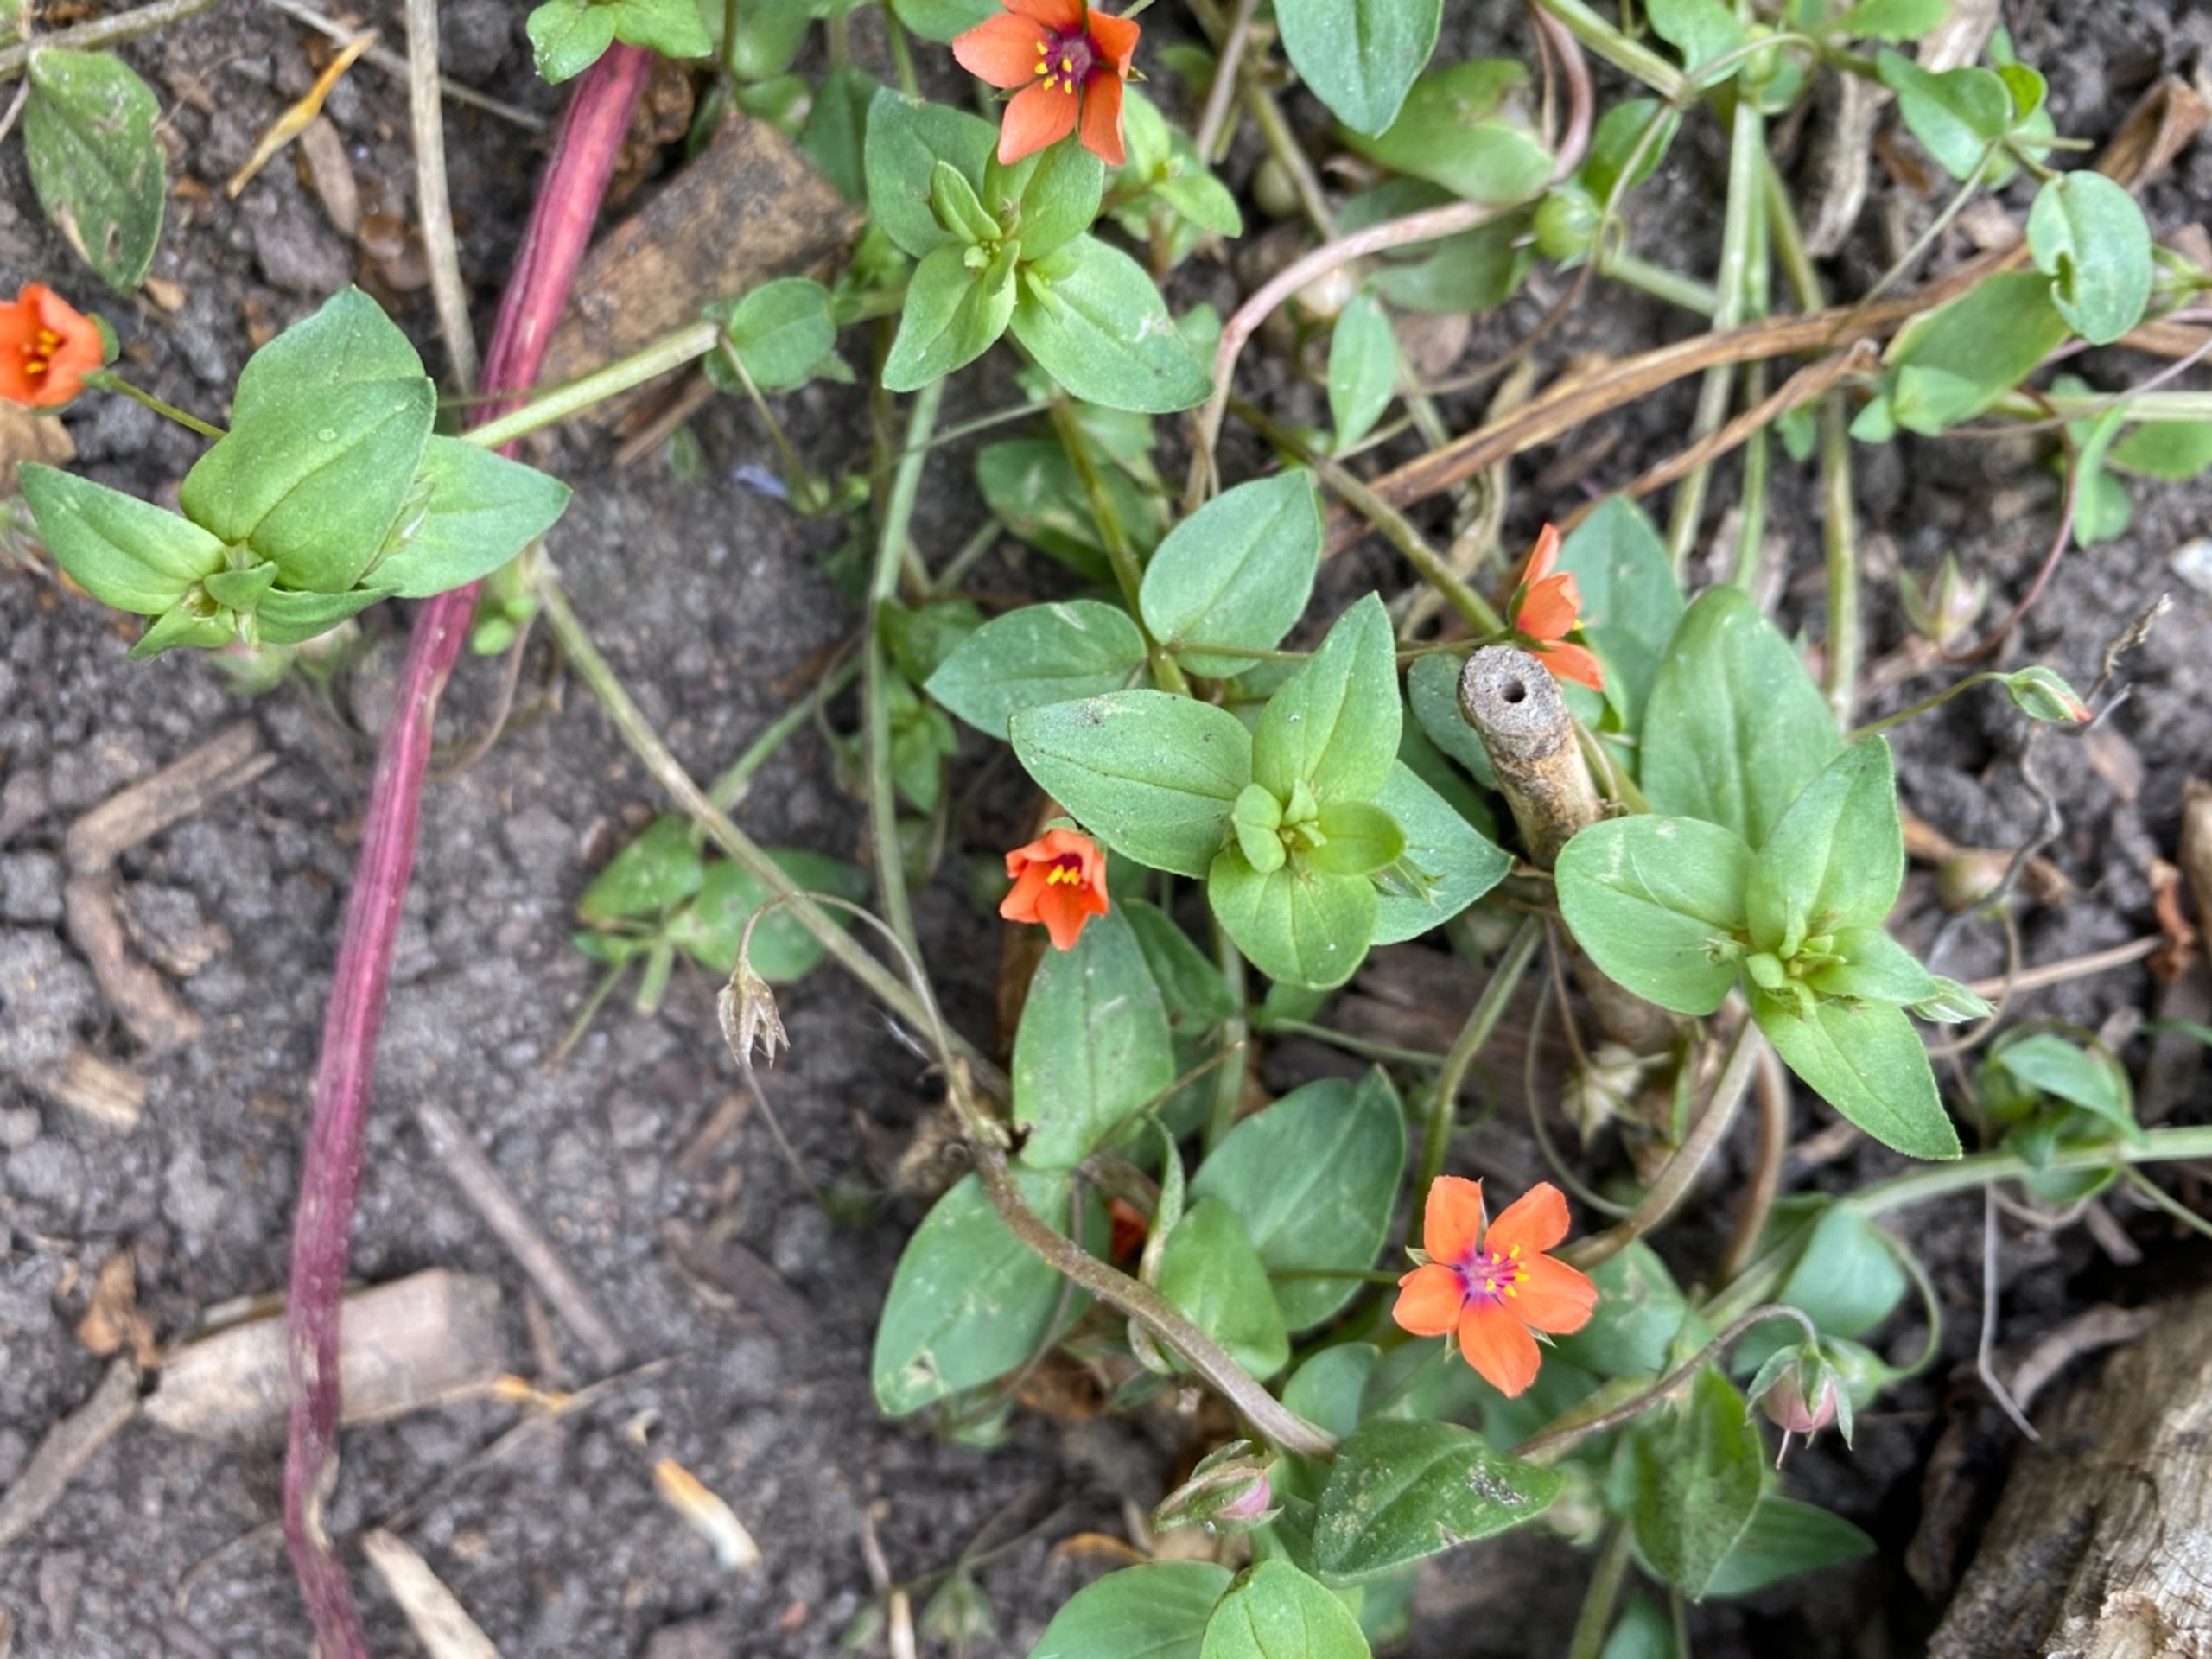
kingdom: Plantae
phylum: Tracheophyta
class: Magnoliopsida
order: Ericales
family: Primulaceae
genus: Lysimachia
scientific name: Lysimachia arvensis
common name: Rød arve
